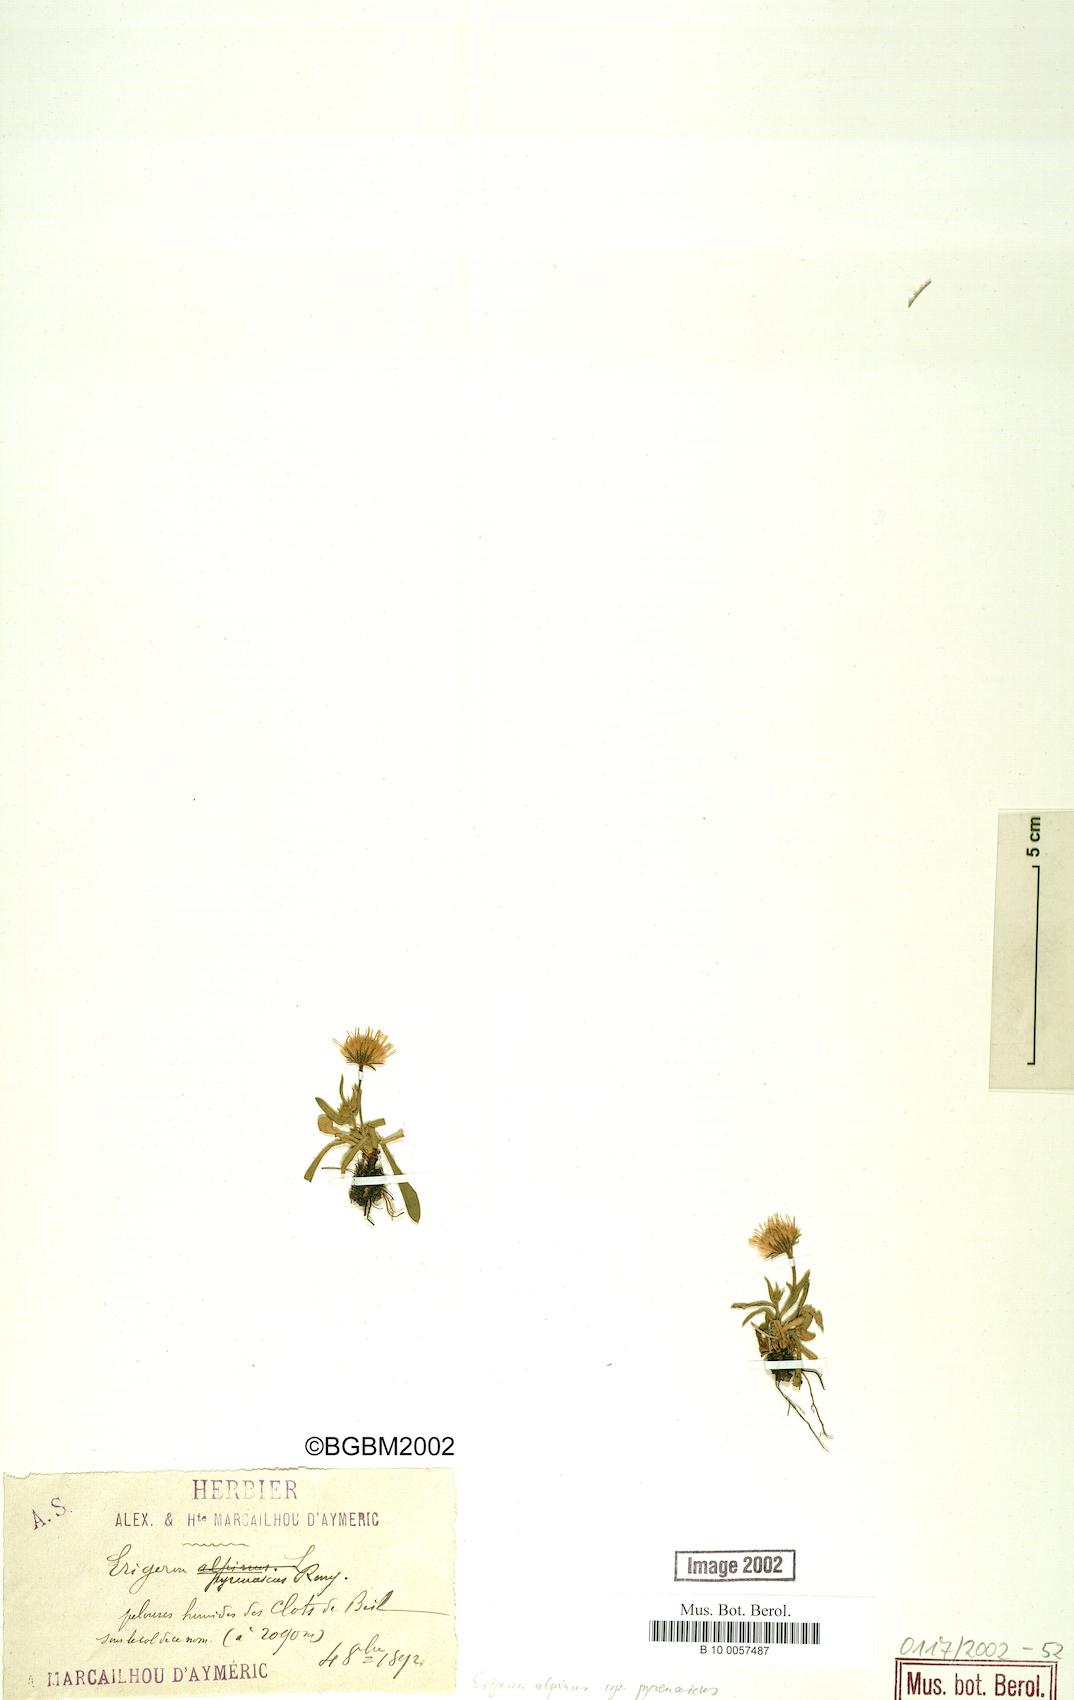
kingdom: Plantae
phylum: Tracheophyta
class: Magnoliopsida
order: Asterales
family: Asteraceae
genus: Erigeron
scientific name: Erigeron uniflorus
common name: Northern daisy
